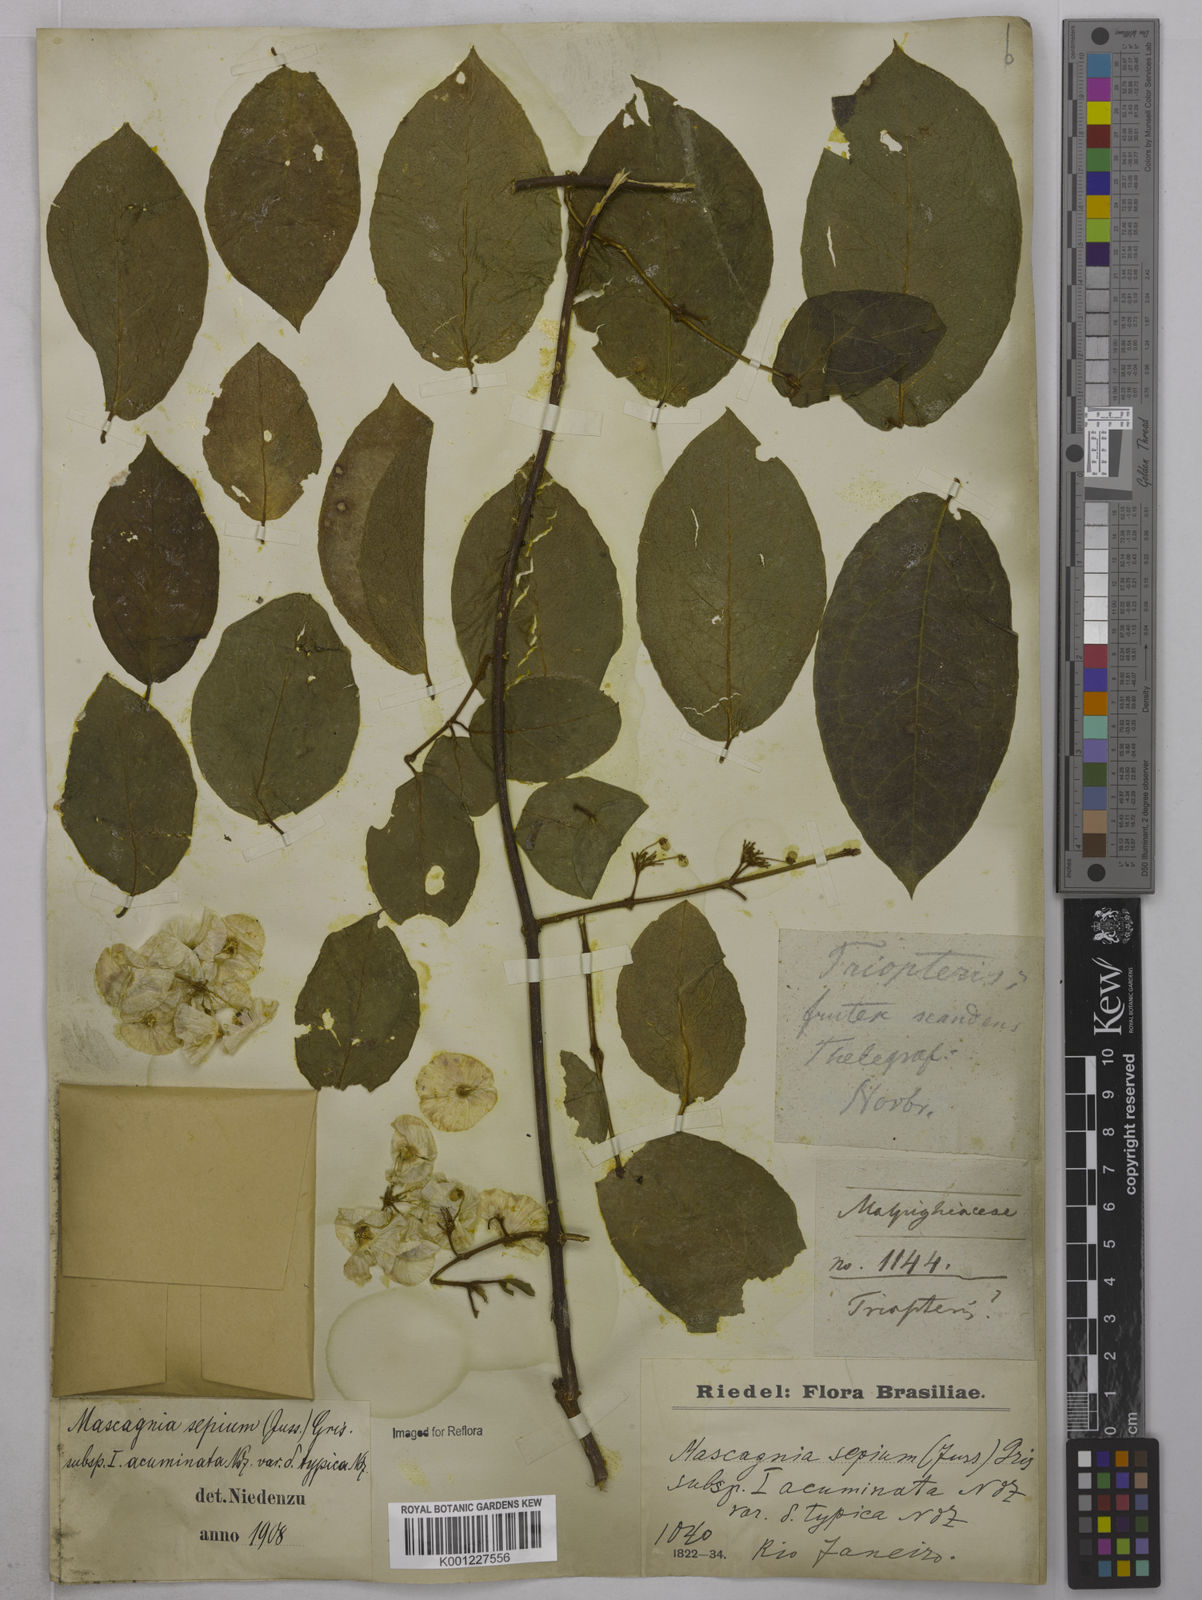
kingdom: Plantae
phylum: Tracheophyta
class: Magnoliopsida
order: Malpighiales
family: Malpighiaceae
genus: Mascagnia
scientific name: Mascagnia sepium
